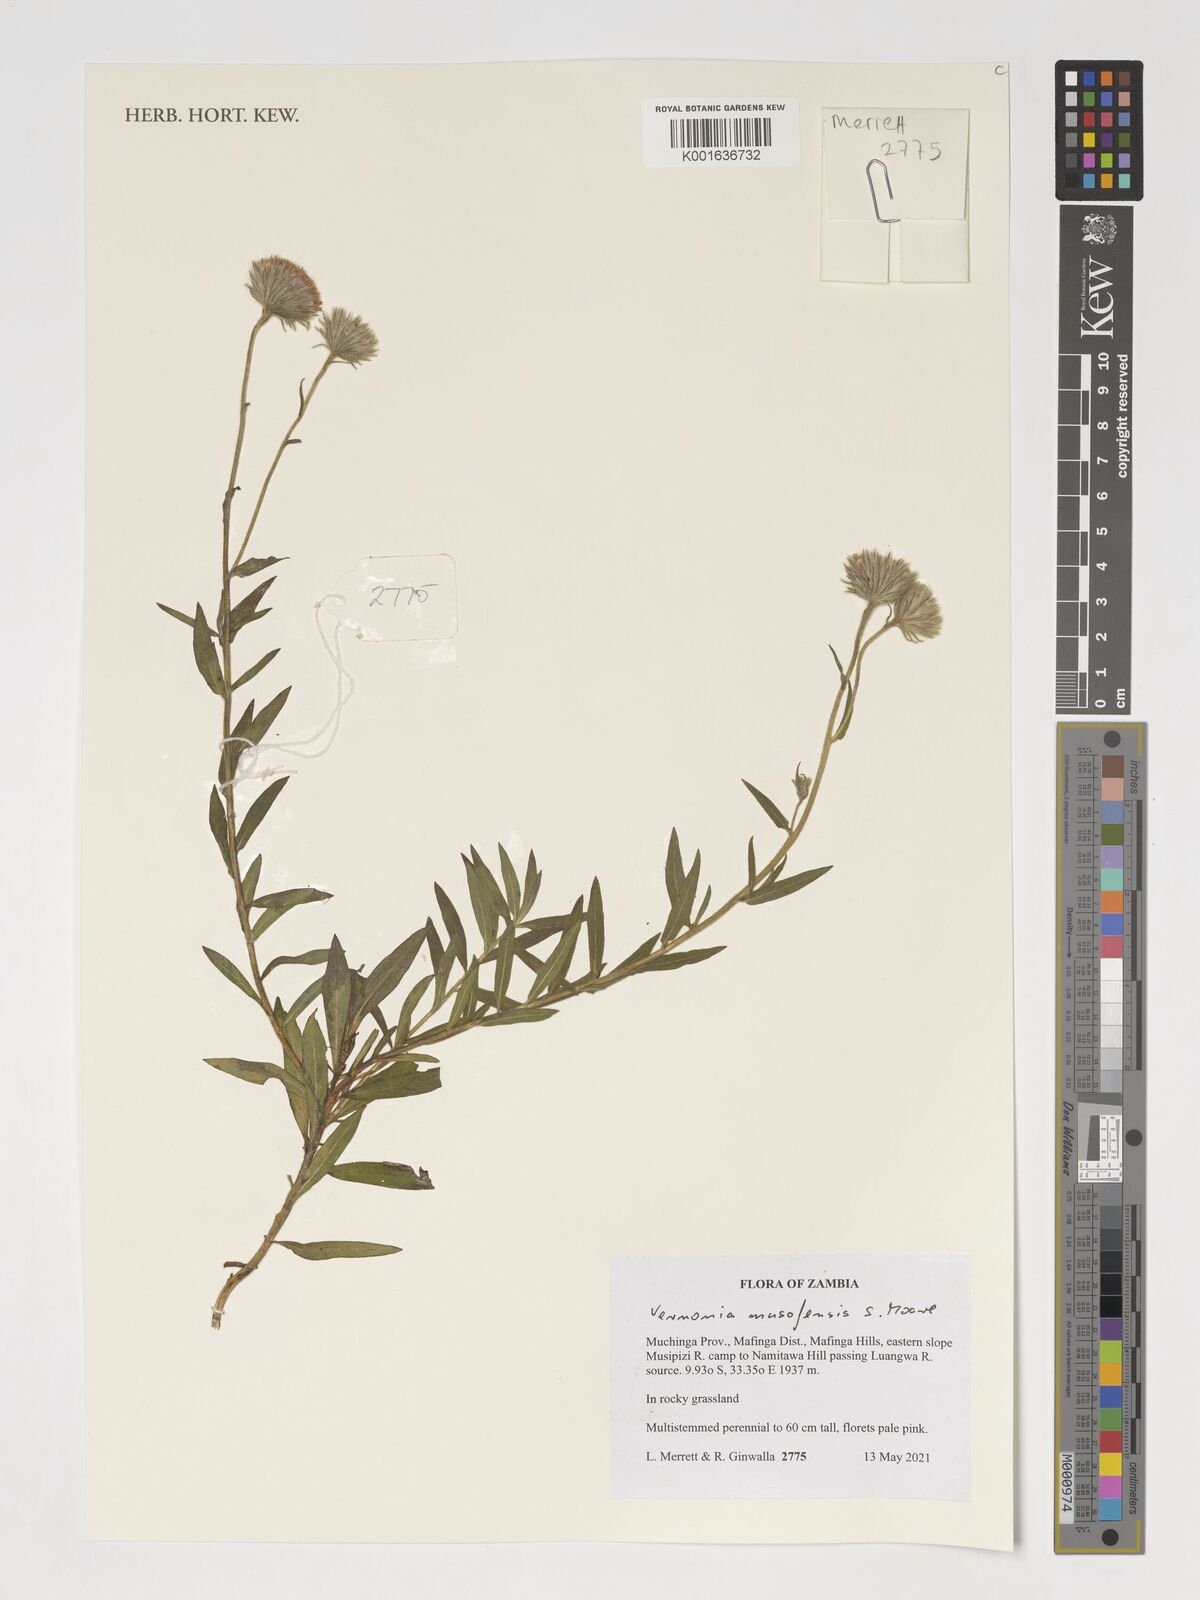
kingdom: Plantae
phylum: Tracheophyta
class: Magnoliopsida
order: Asterales
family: Asteraceae
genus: Vernoniastrum
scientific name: Vernoniastrum musofense
